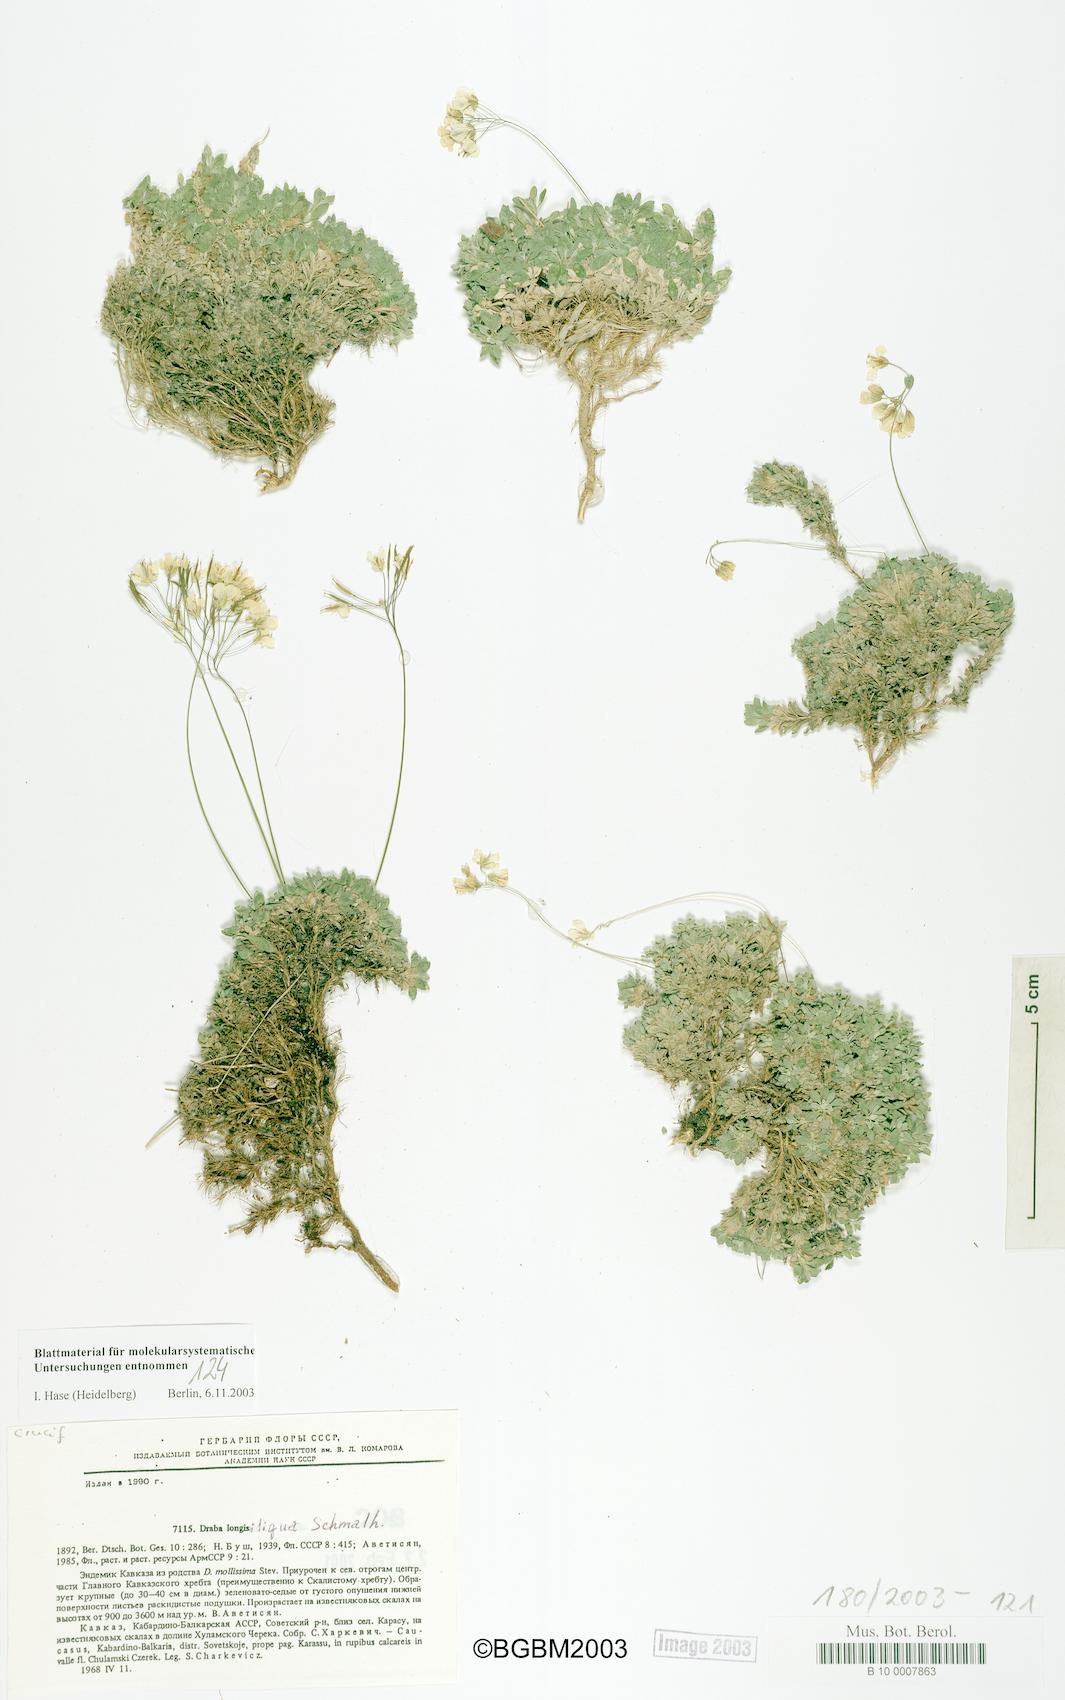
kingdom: Plantae
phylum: Tracheophyta
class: Magnoliopsida
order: Brassicales
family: Brassicaceae
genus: Draba
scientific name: Draba longisiliqua
